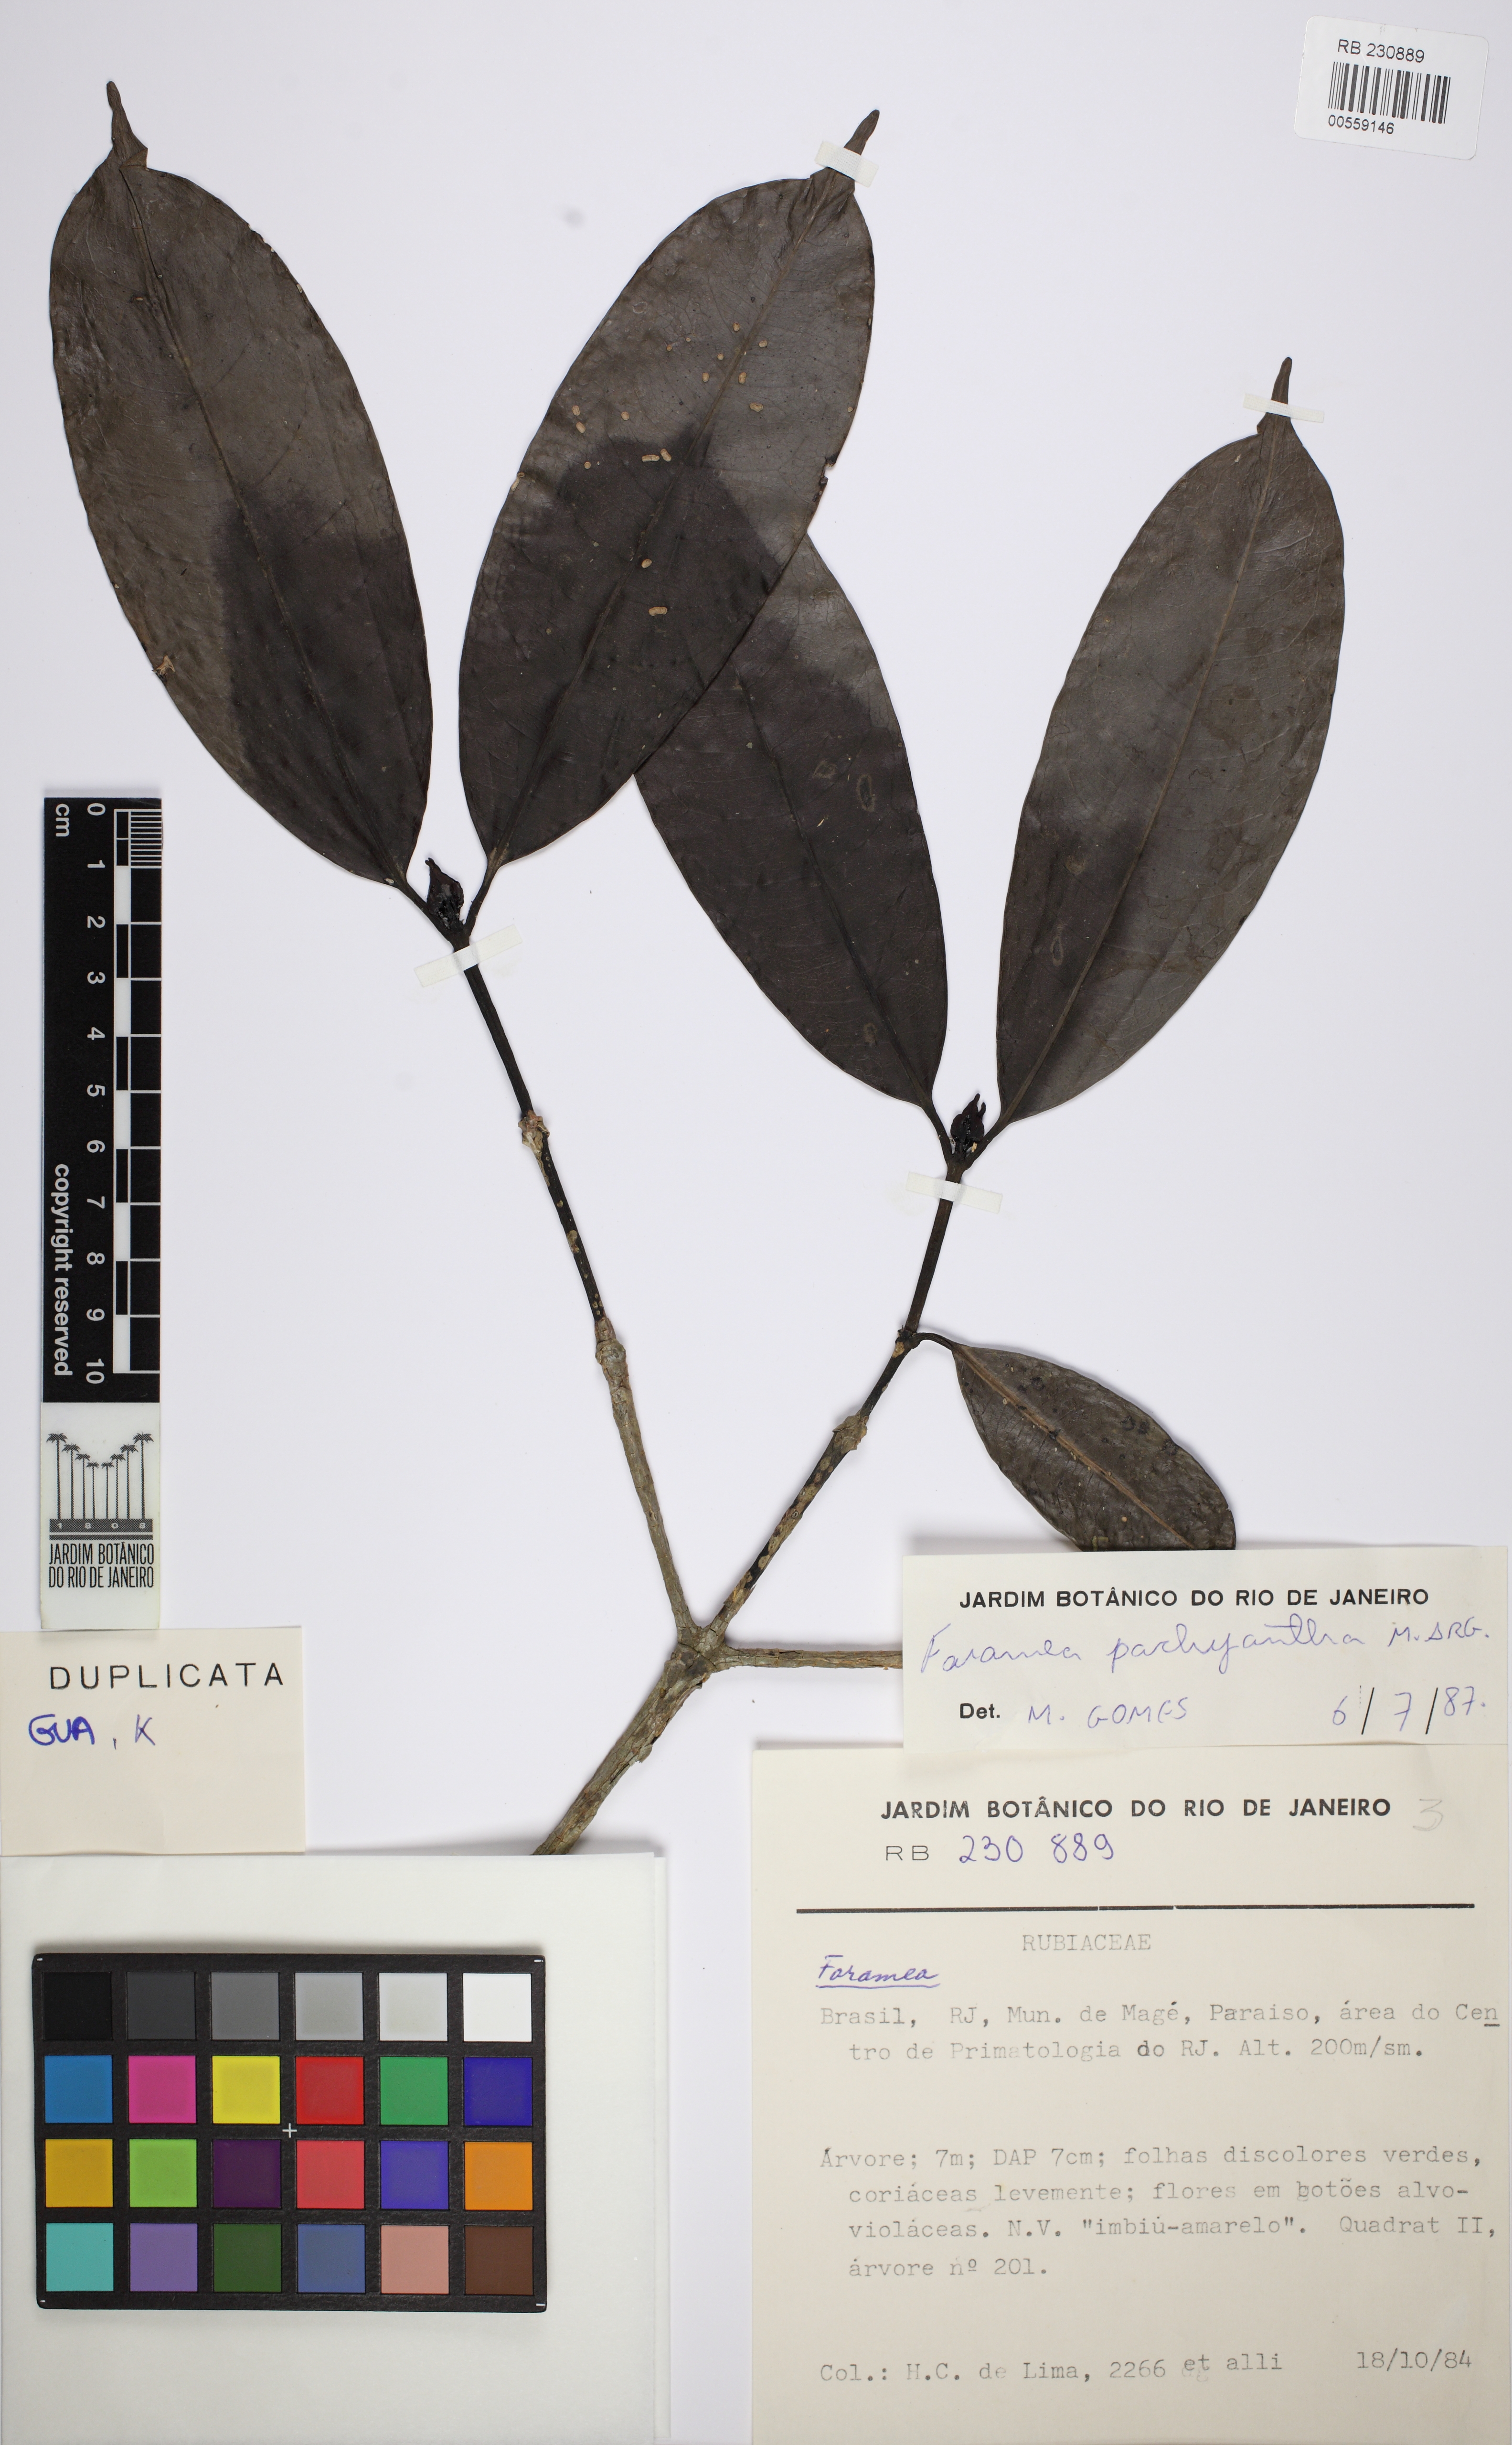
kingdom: Plantae
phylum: Tracheophyta
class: Magnoliopsida
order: Gentianales
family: Rubiaceae
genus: Faramea
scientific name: Faramea pachyantha
